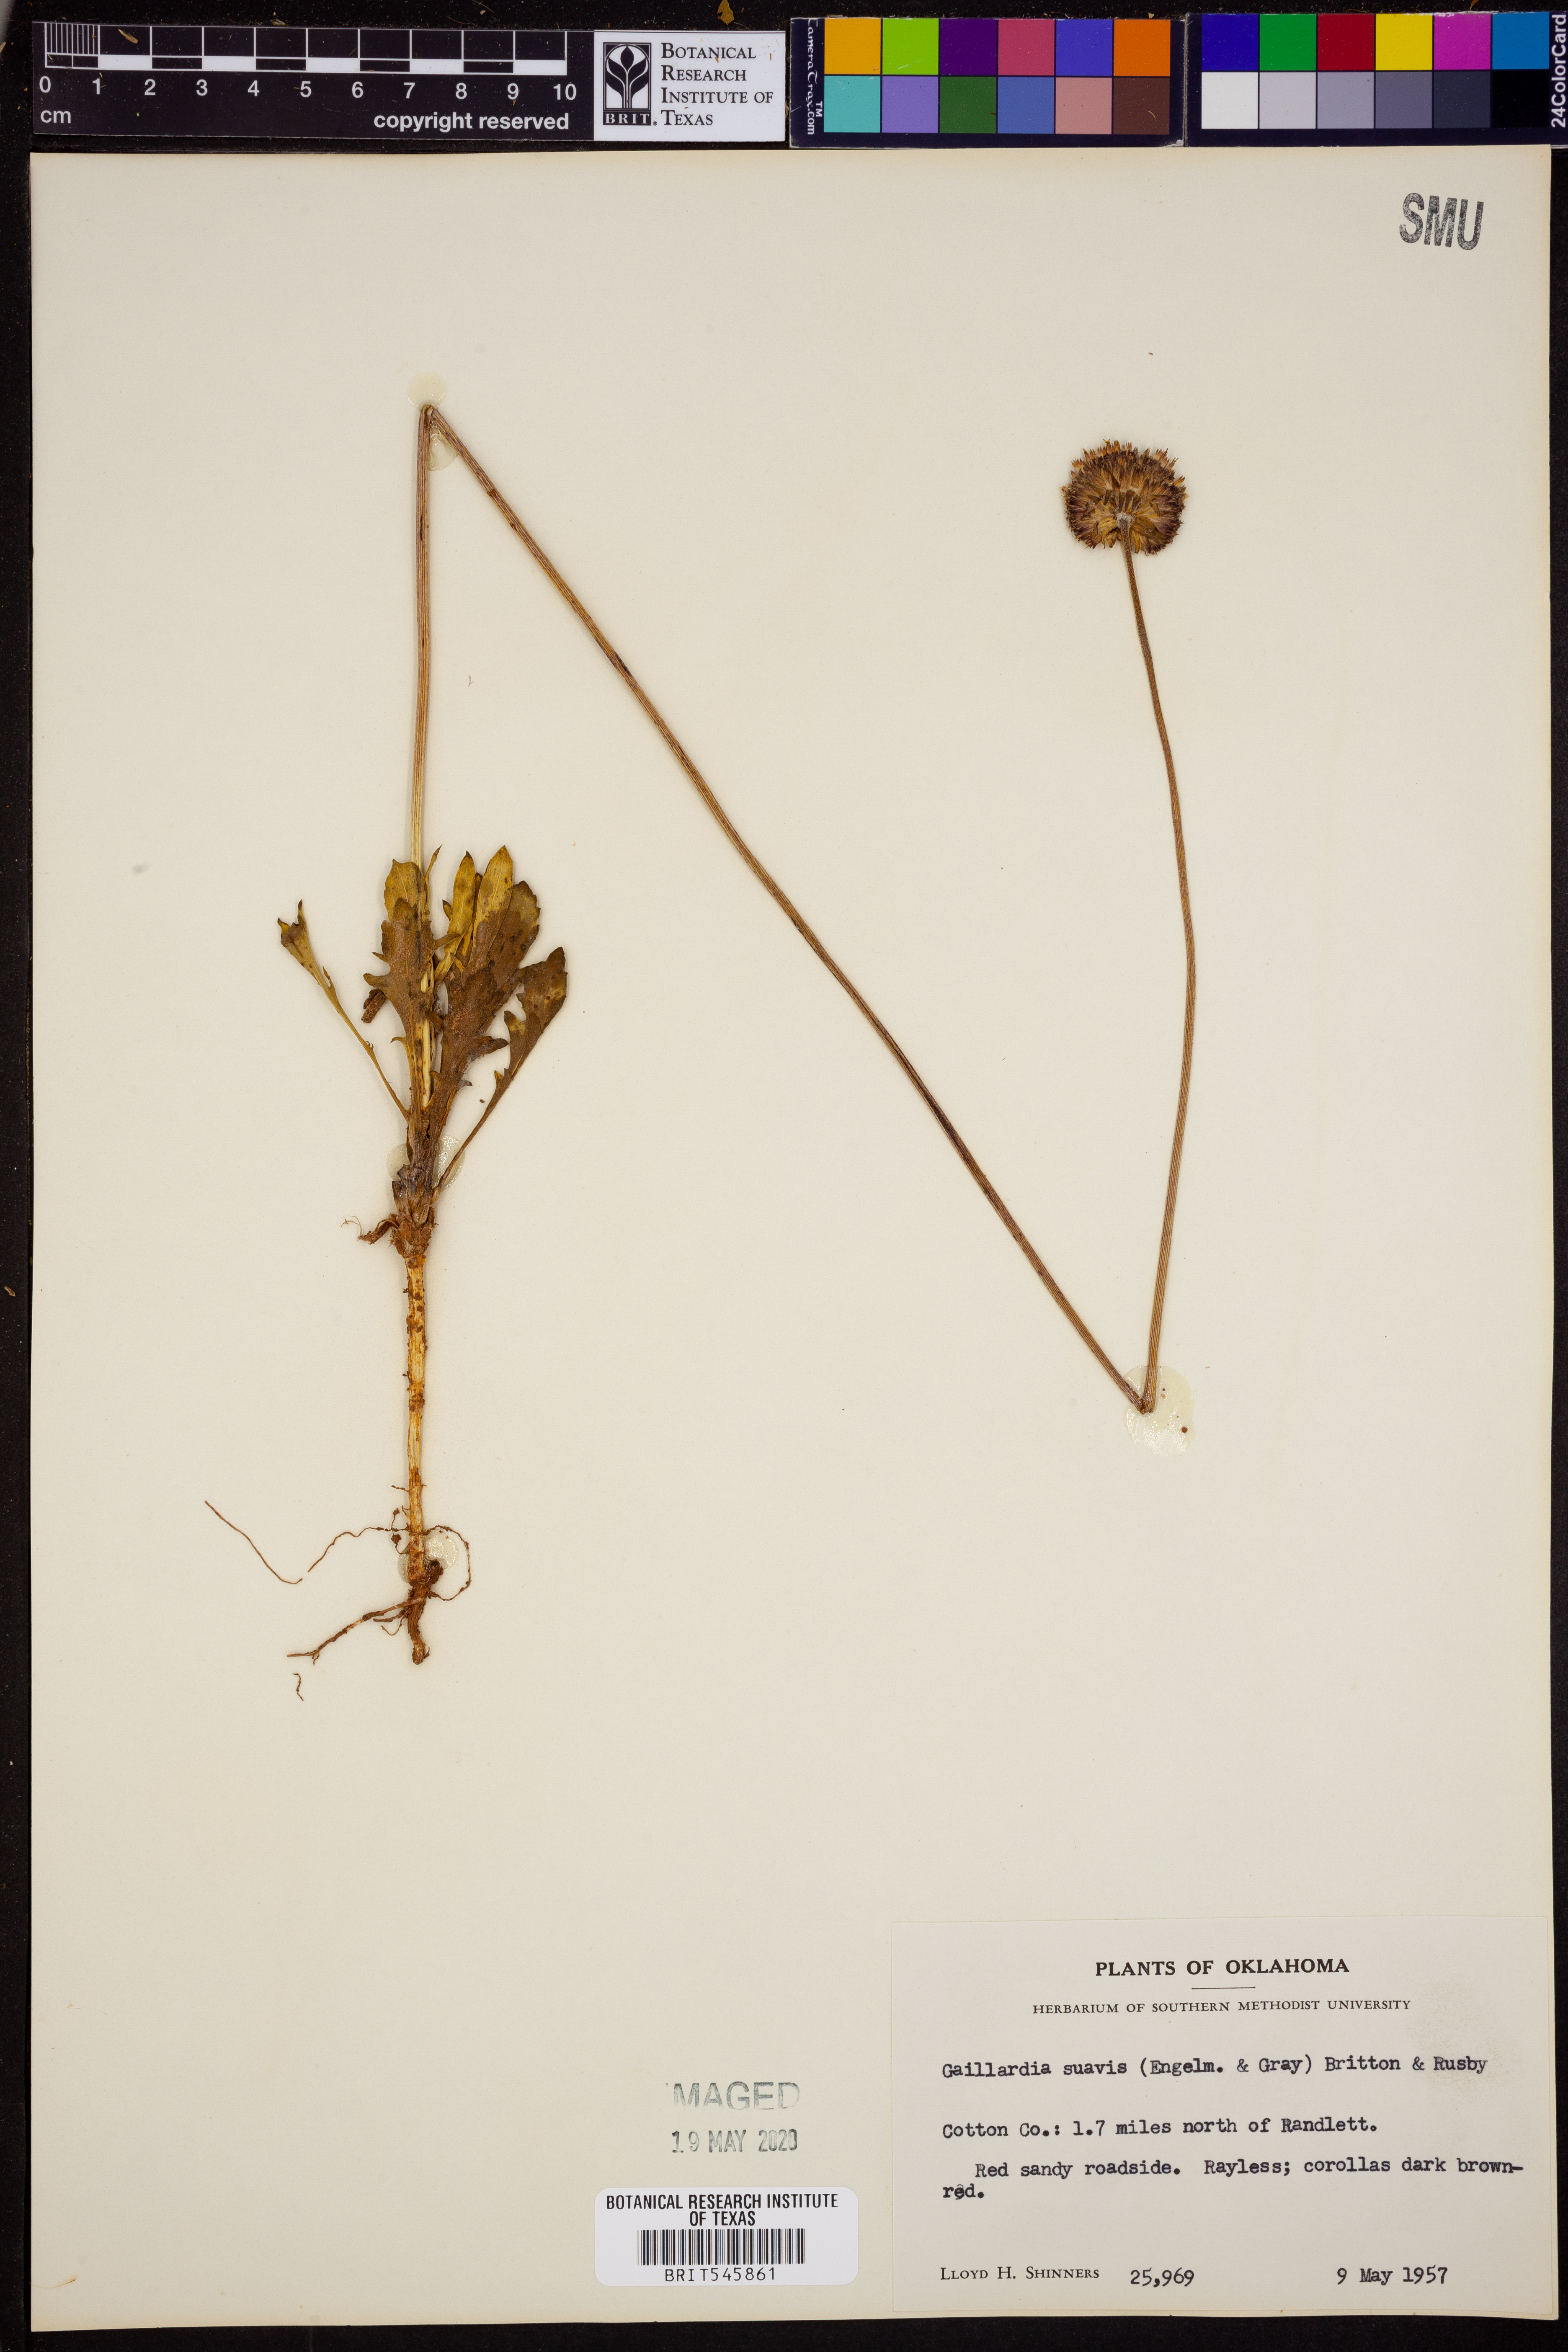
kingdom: Plantae
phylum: Tracheophyta
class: Magnoliopsida
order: Asterales
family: Asteraceae
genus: Gaillardia
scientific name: Gaillardia suavis
